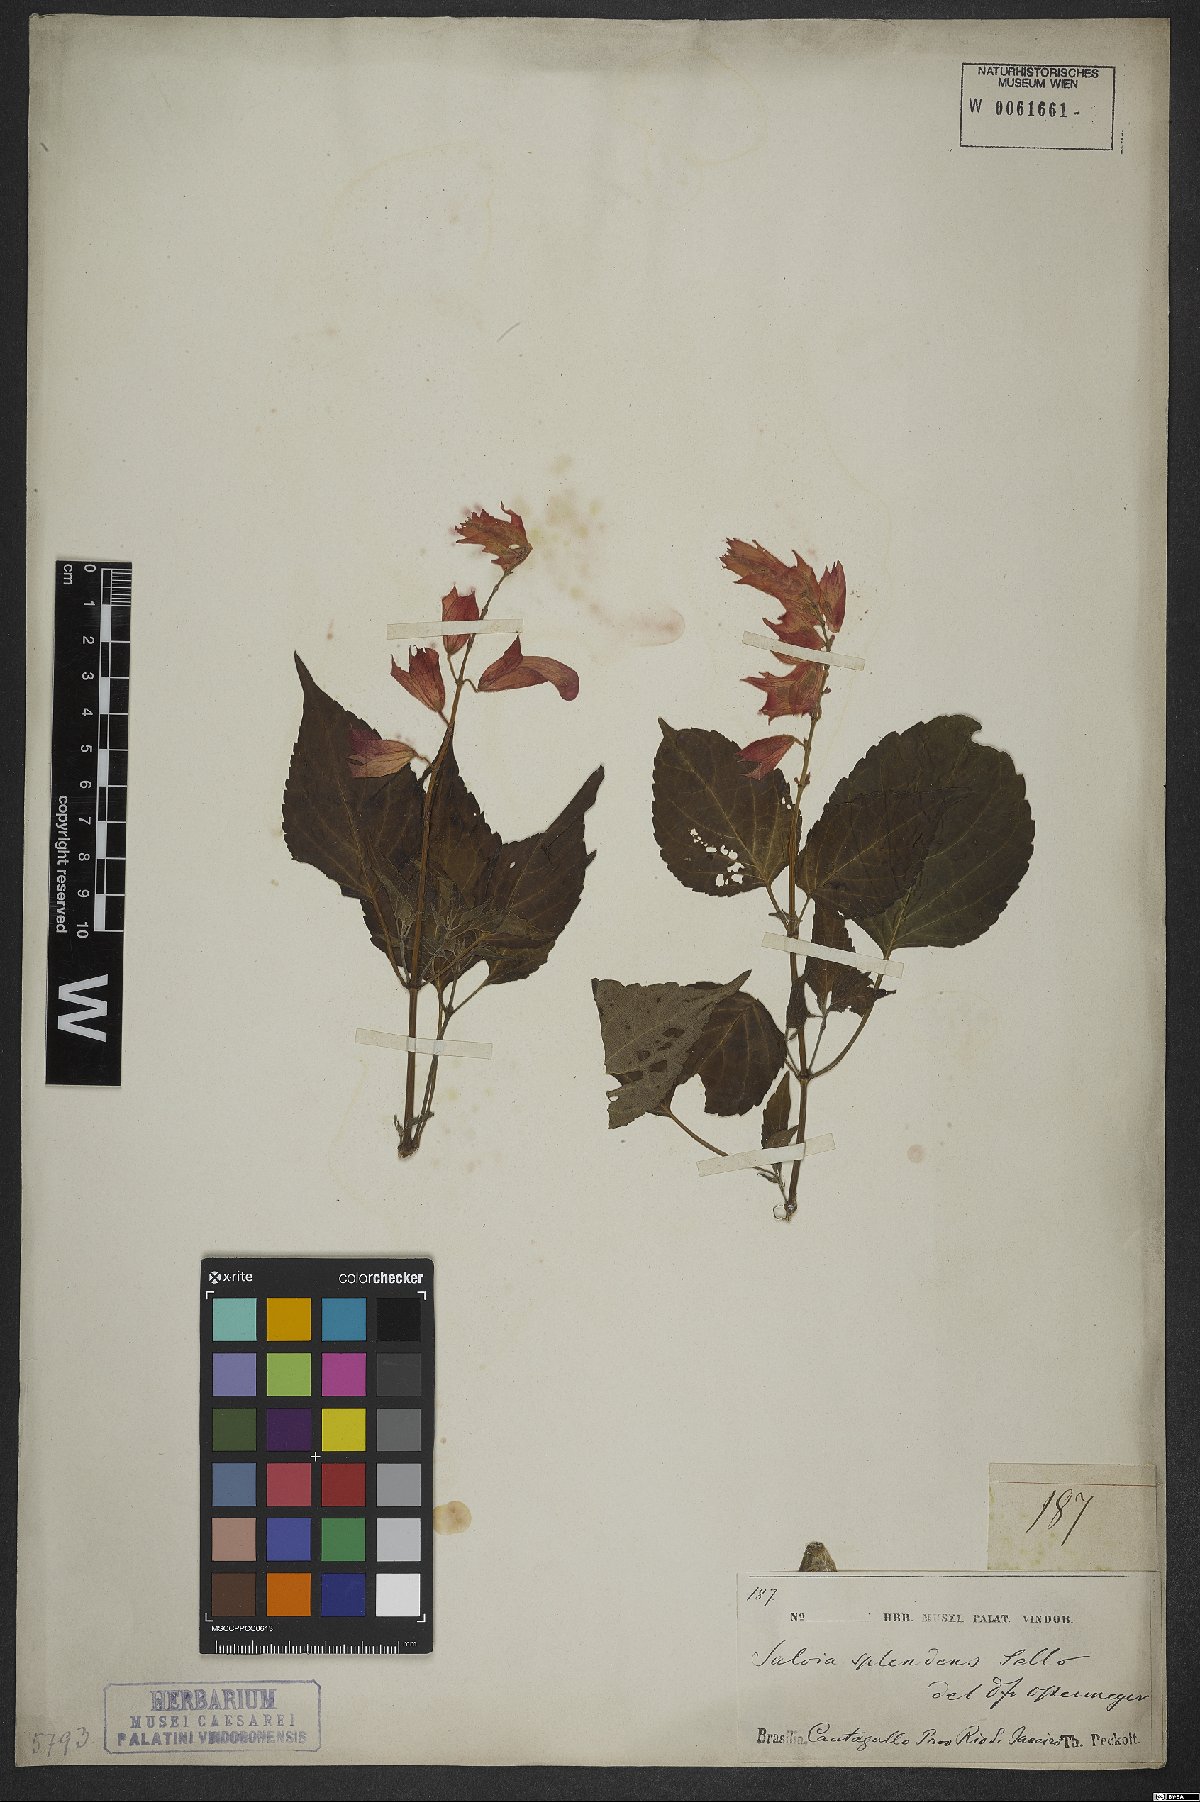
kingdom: Plantae
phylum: Tracheophyta
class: Magnoliopsida
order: Lamiales
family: Lamiaceae
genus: Salvia
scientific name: Salvia splendens
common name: Scarlet sage
